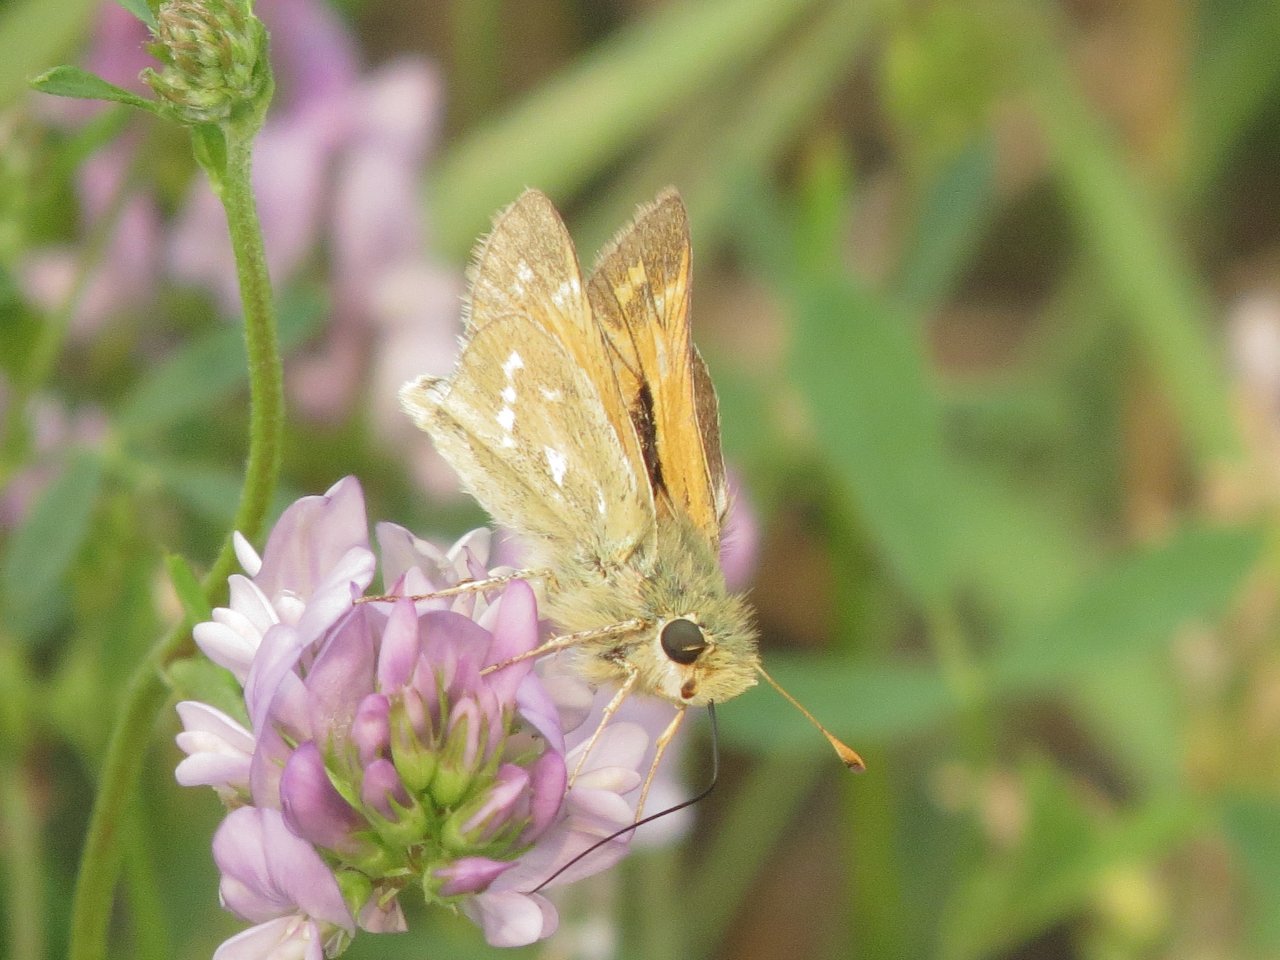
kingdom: Animalia
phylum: Arthropoda
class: Insecta
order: Lepidoptera
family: Hesperiidae
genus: Hesperia
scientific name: Hesperia comma
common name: Western Branded Skipper
